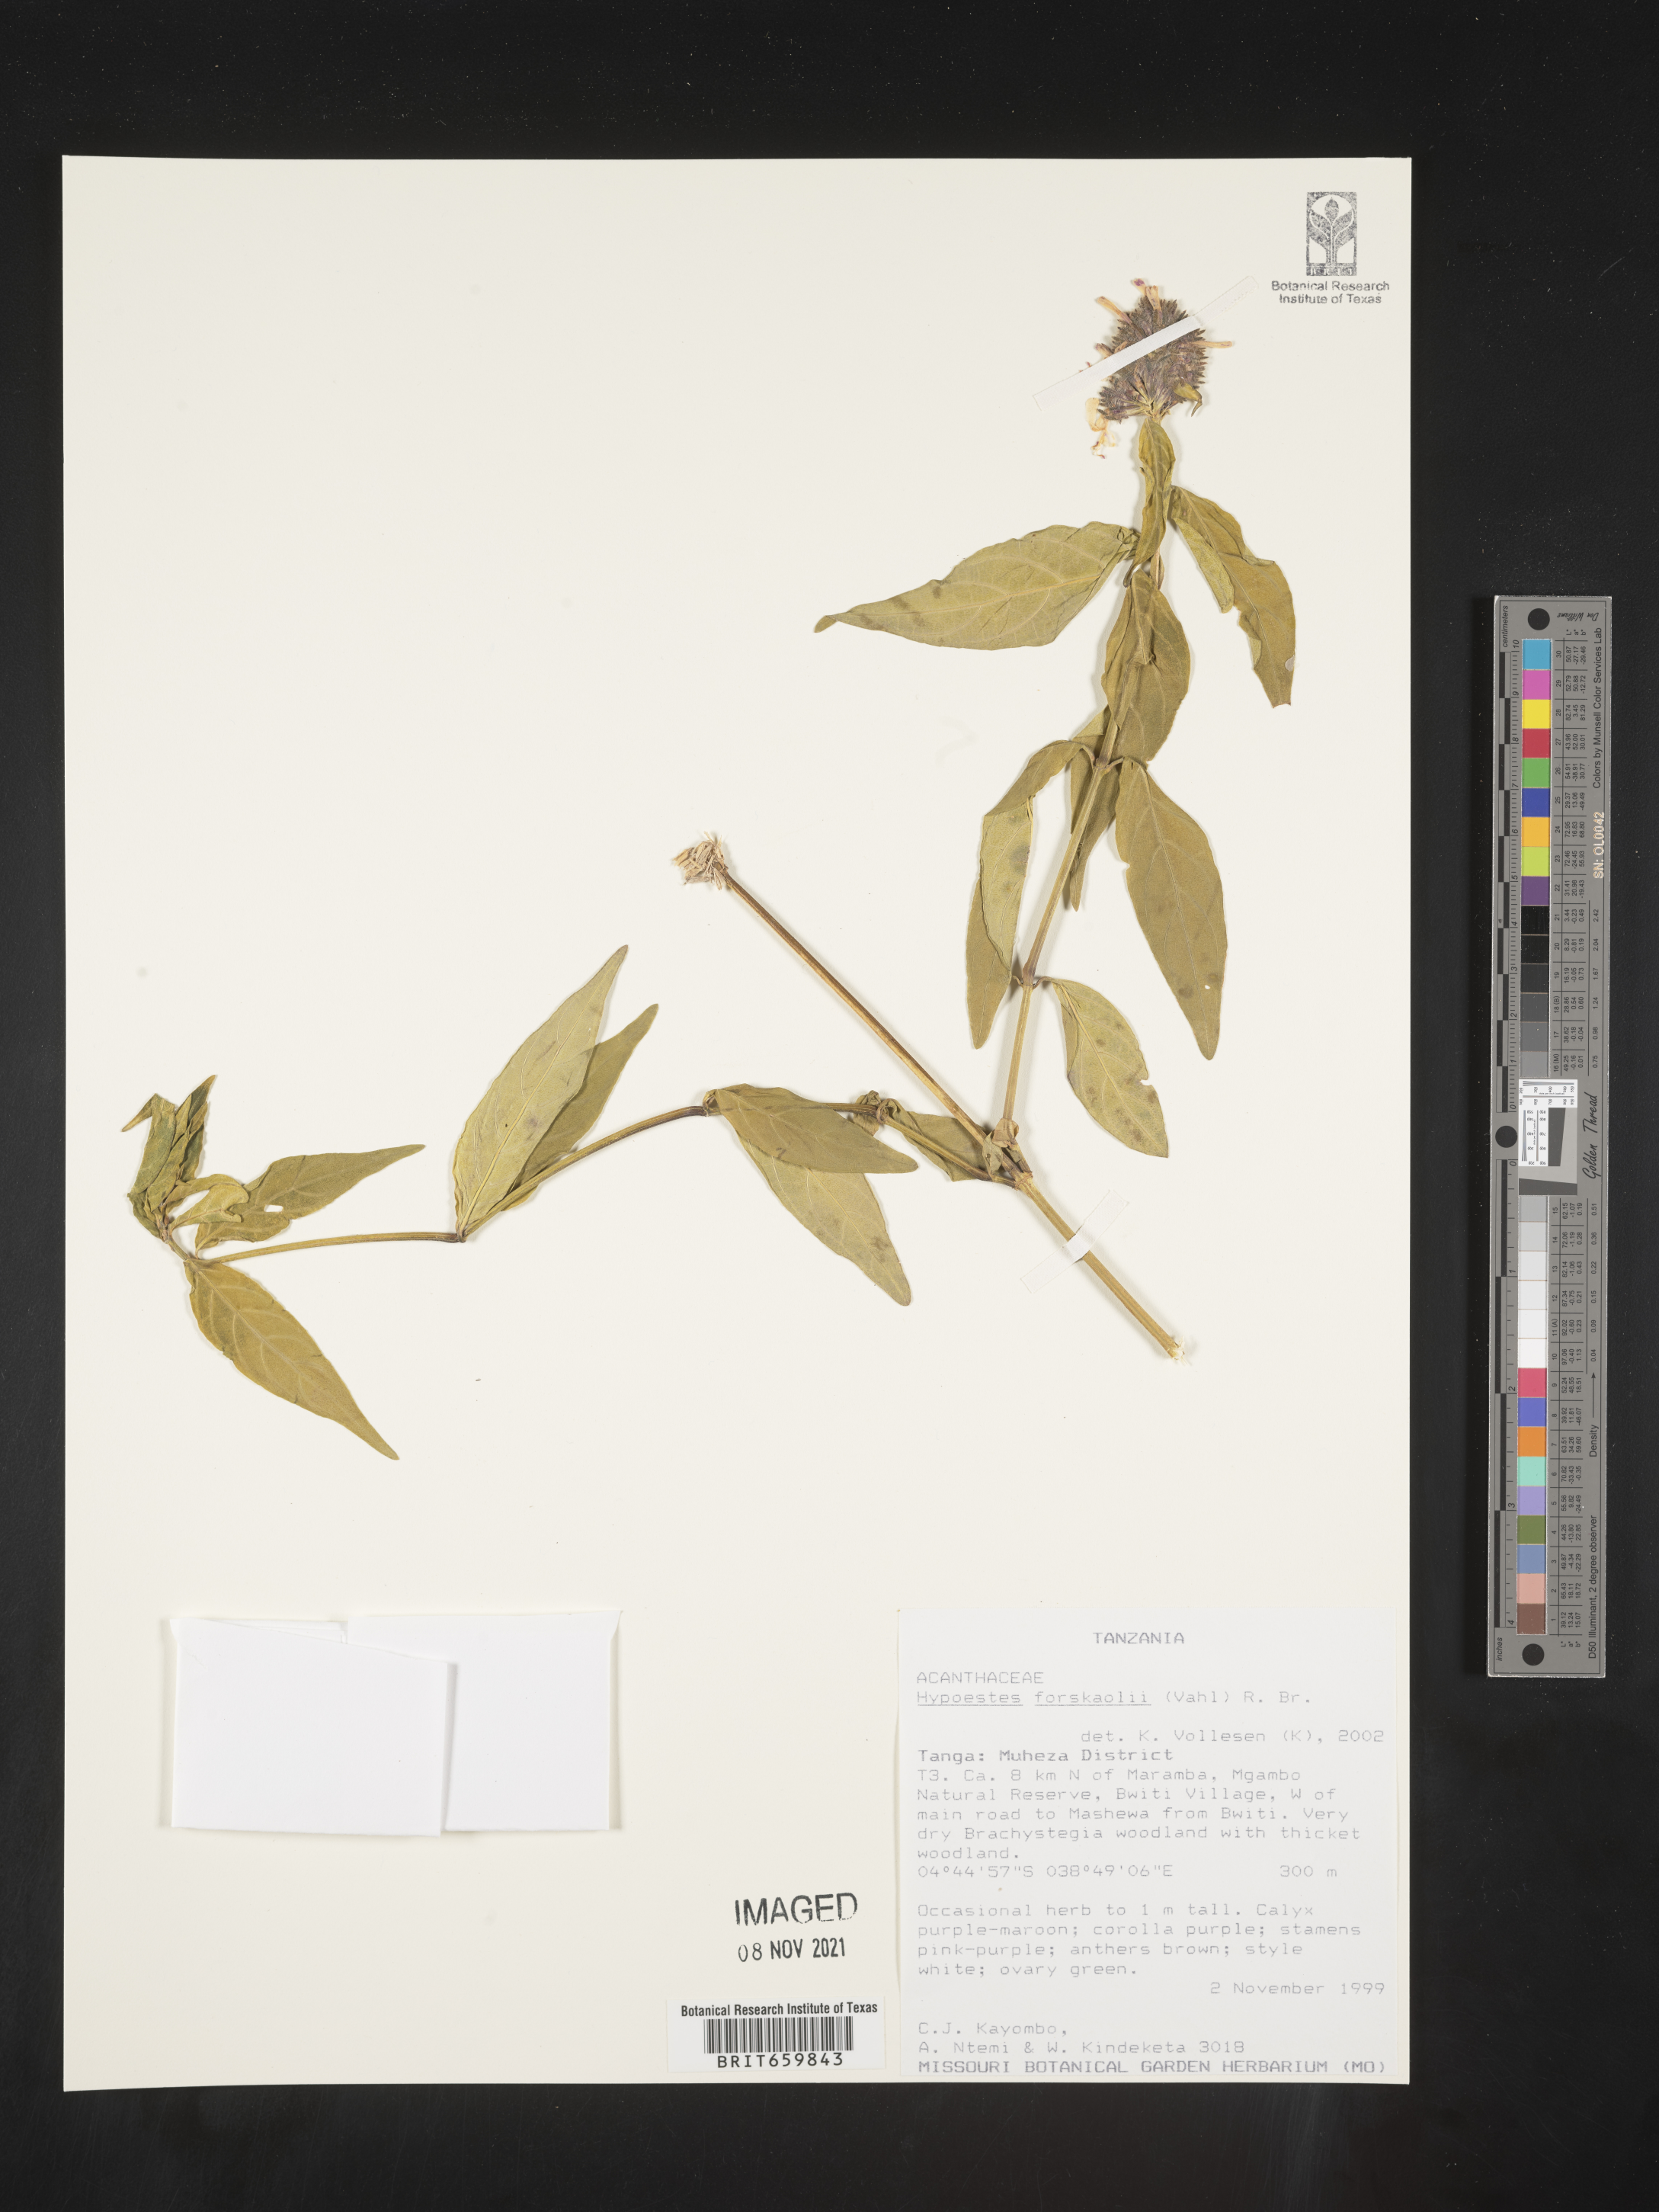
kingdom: Plantae
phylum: Tracheophyta
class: Magnoliopsida
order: Lamiales
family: Acanthaceae
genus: Hypoestes
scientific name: Hypoestes forskaolii
